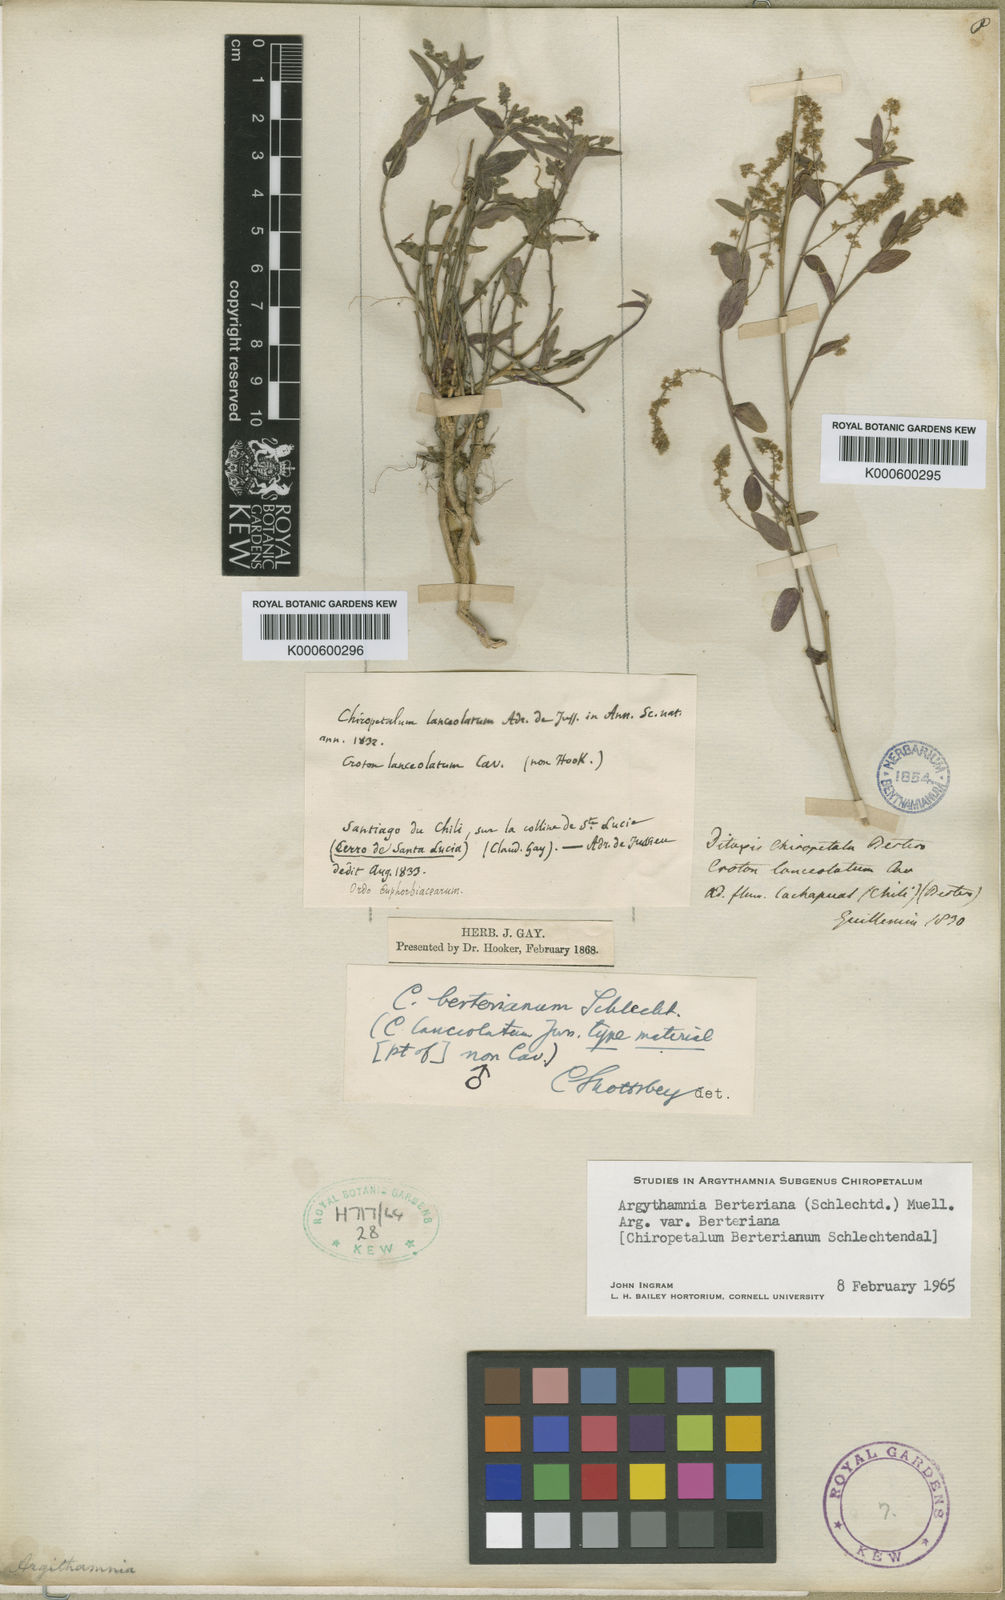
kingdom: Plantae
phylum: Tracheophyta
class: Magnoliopsida
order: Malpighiales
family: Euphorbiaceae
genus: Chiropetalum
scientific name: Chiropetalum berteroanum
